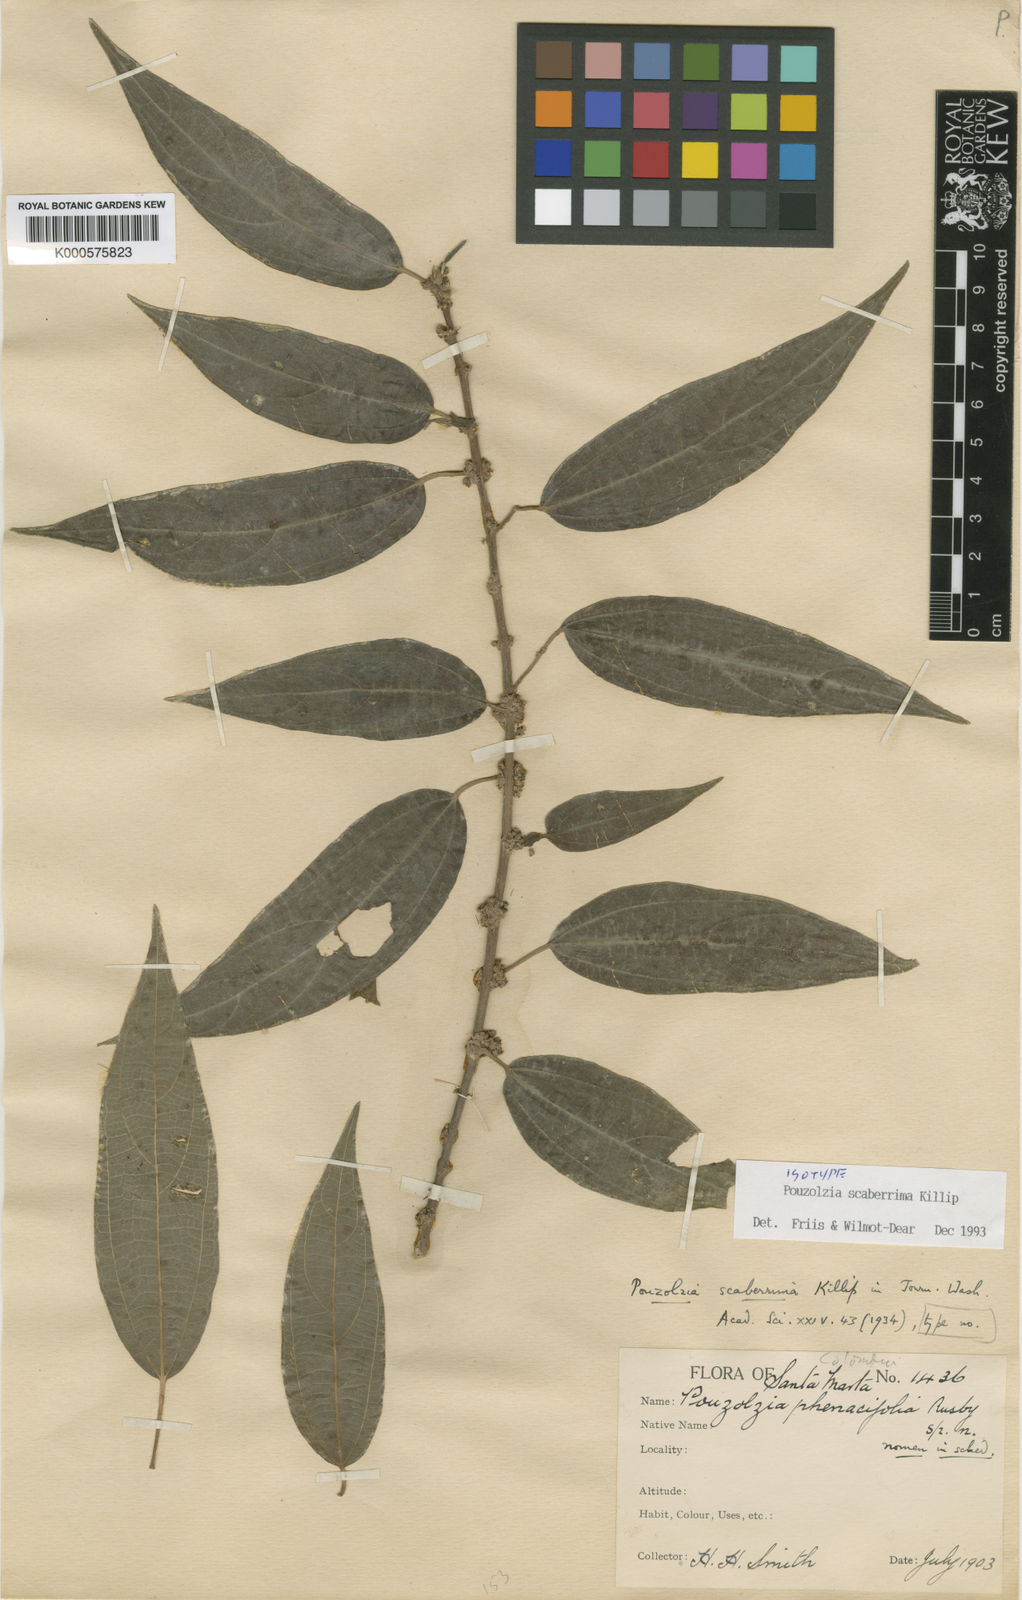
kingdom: Plantae
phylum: Tracheophyta
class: Magnoliopsida
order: Rosales
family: Urticaceae
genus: Pouzolzia
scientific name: Pouzolzia scaberrima
